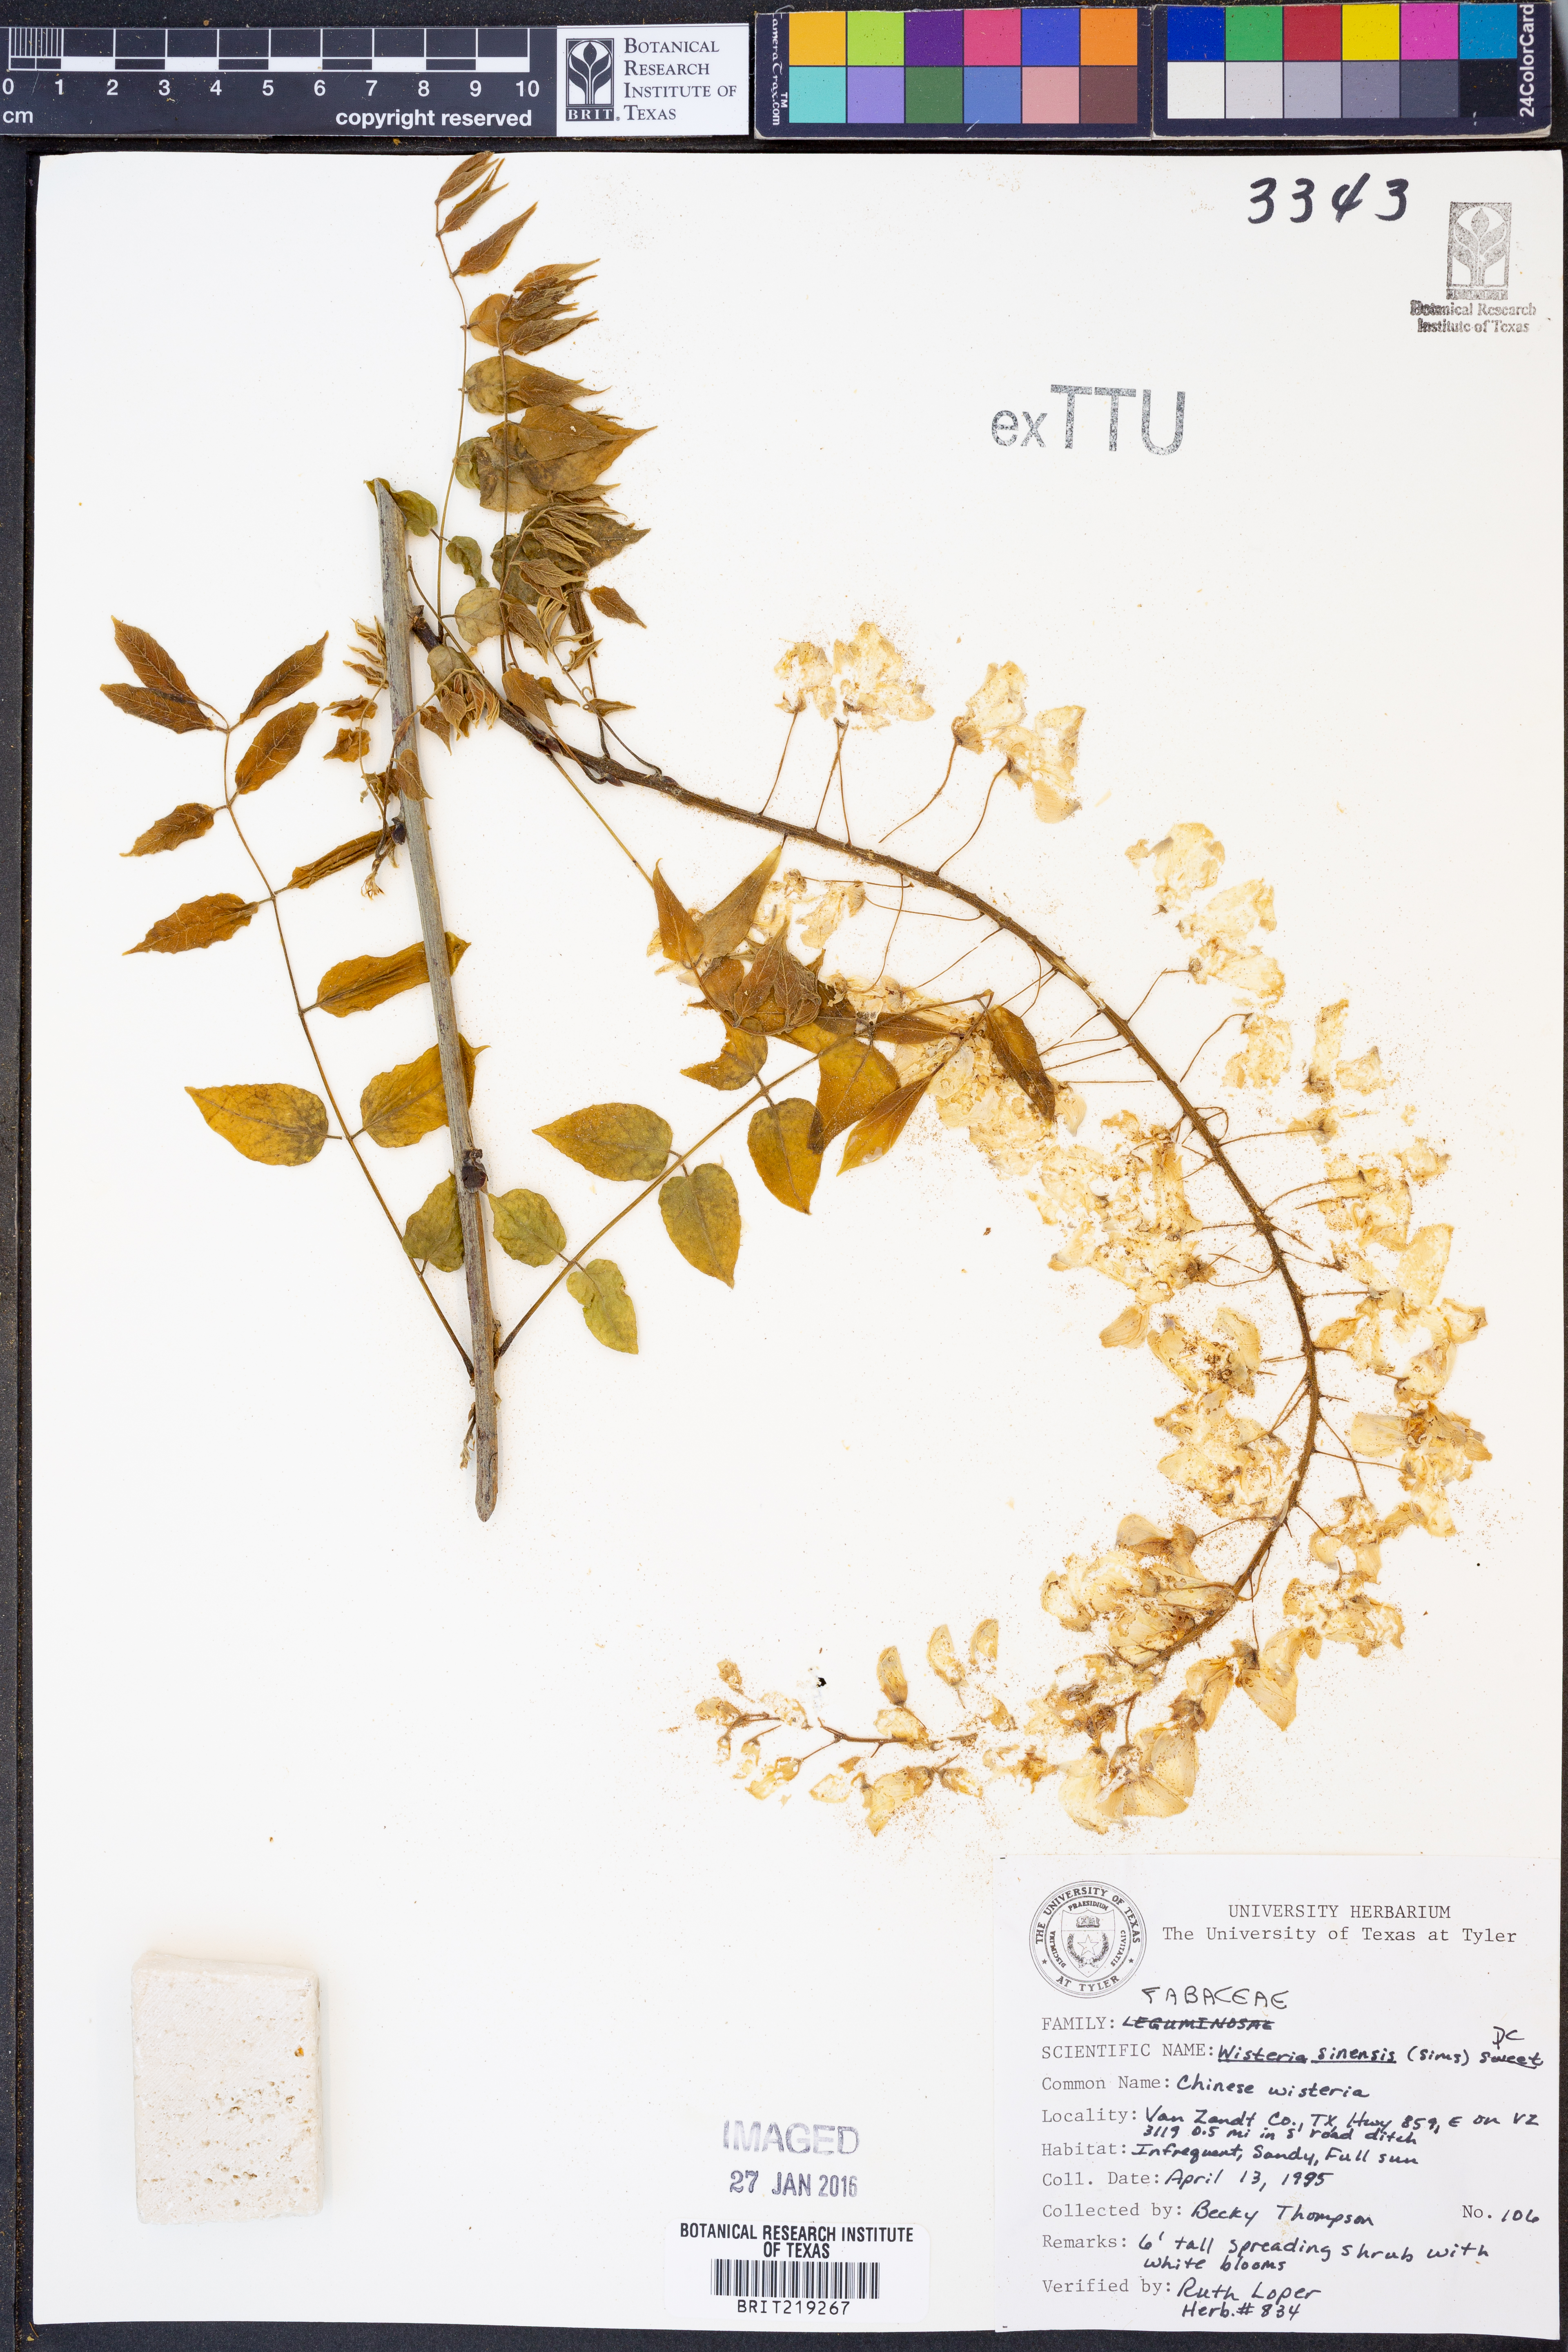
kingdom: Plantae
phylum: Tracheophyta
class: Magnoliopsida
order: Fabales
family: Fabaceae
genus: Wisteria
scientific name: Wisteria sinensis
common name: Chinese wisteria
